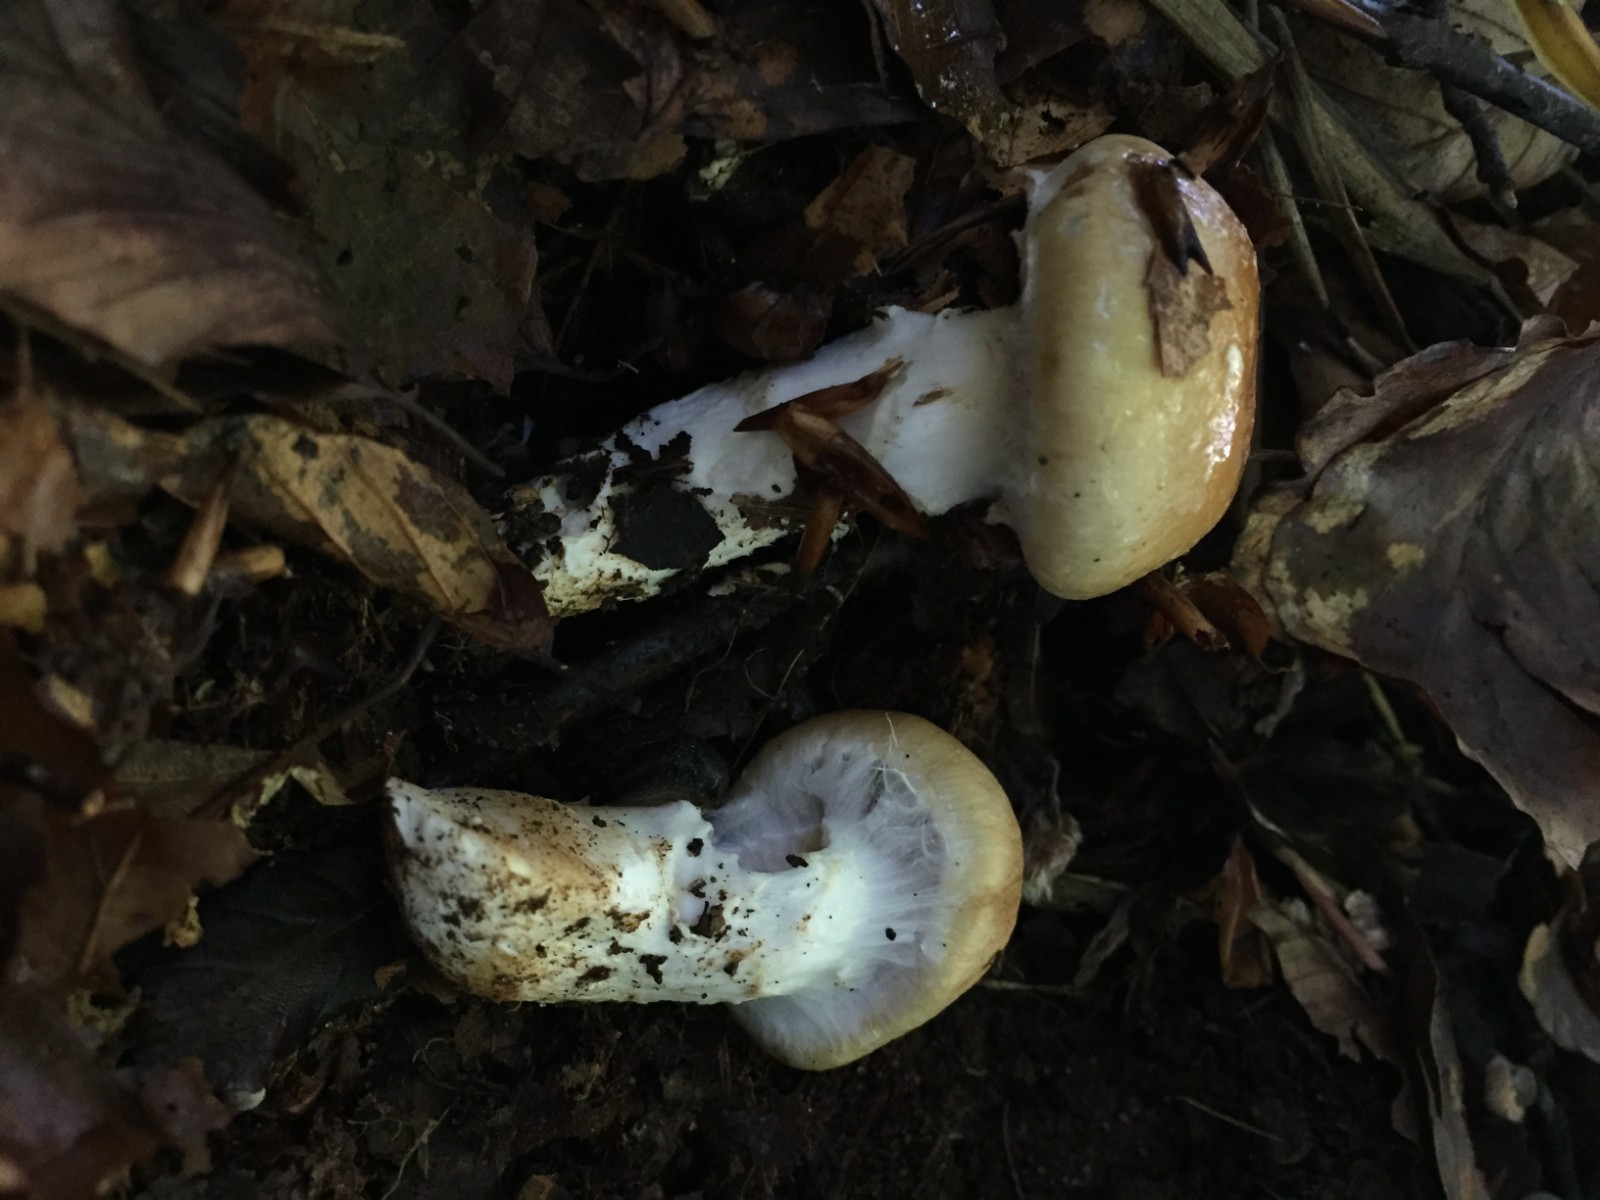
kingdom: Fungi
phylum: Basidiomycota
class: Agaricomycetes
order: Agaricales
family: Cortinariaceae
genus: Phlegmacium
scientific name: Phlegmacium vulpinum
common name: ringbæltet slørhat
